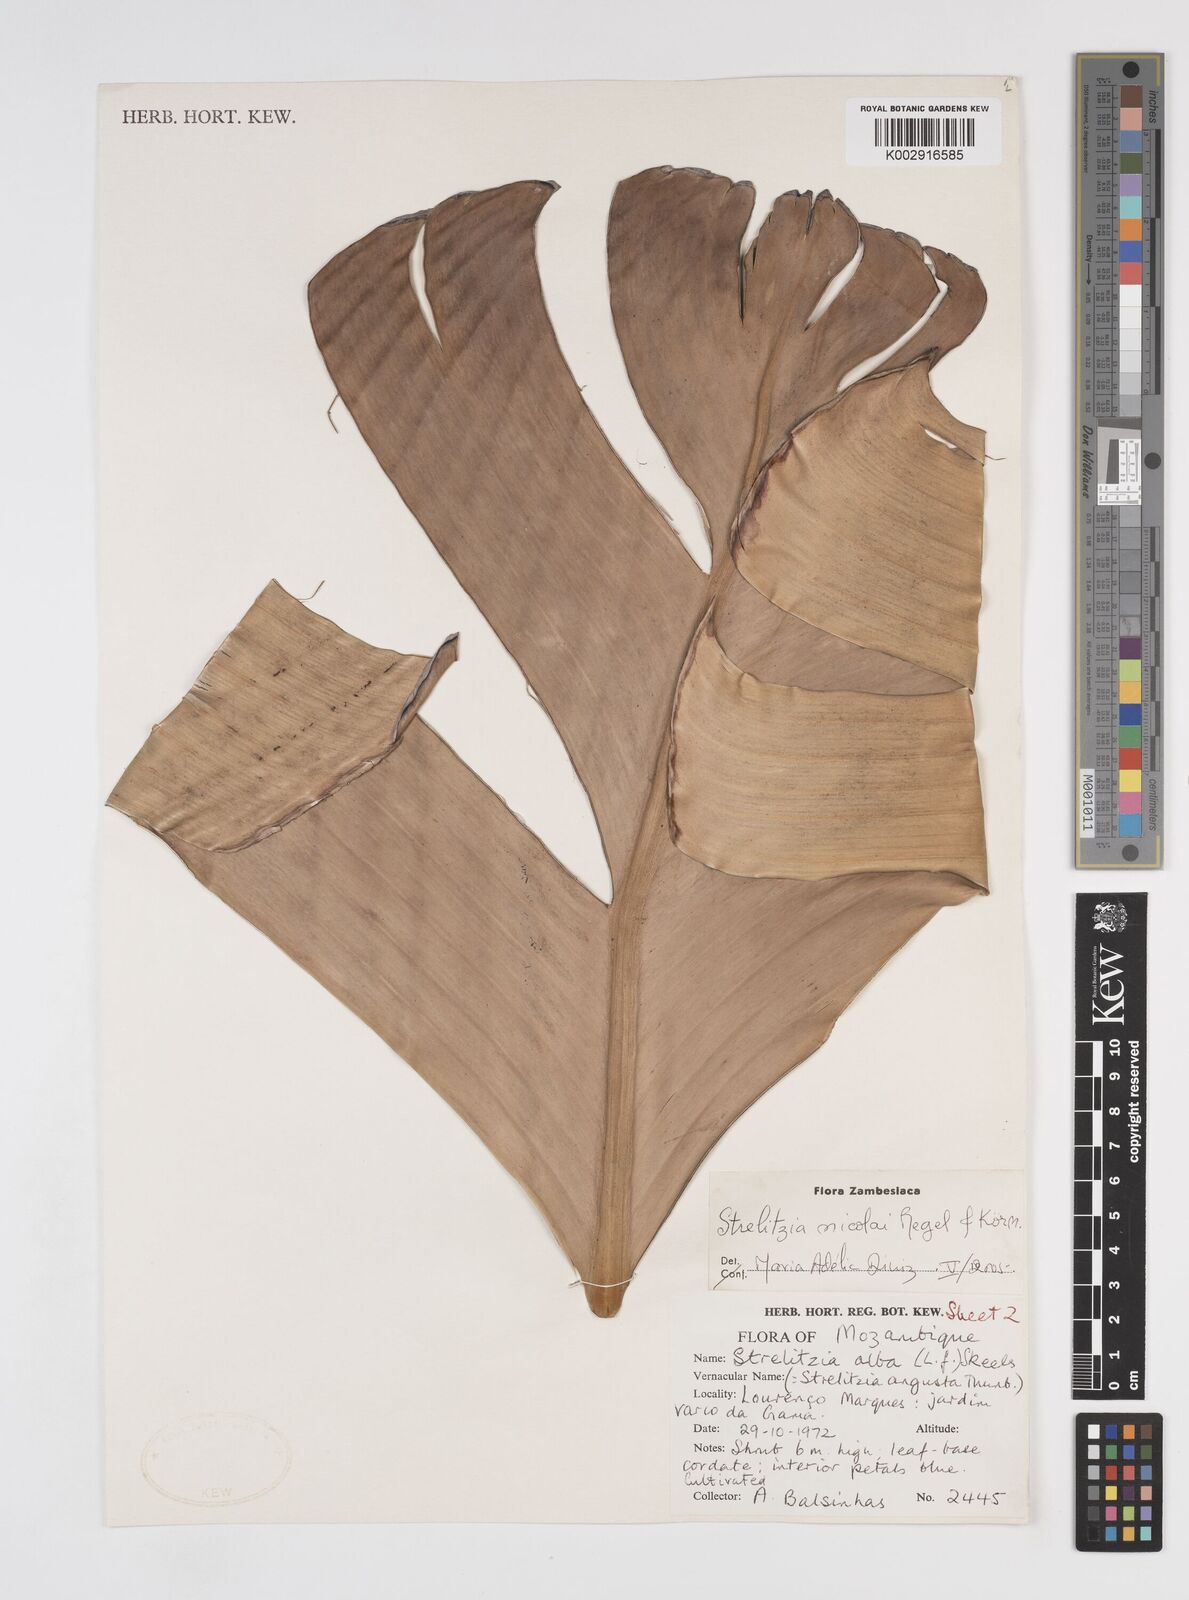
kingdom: Plantae
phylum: Tracheophyta
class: Liliopsida
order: Zingiberales
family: Strelitziaceae
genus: Strelitzia
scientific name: Strelitzia nicolai
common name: Bird-of-paradise tree
